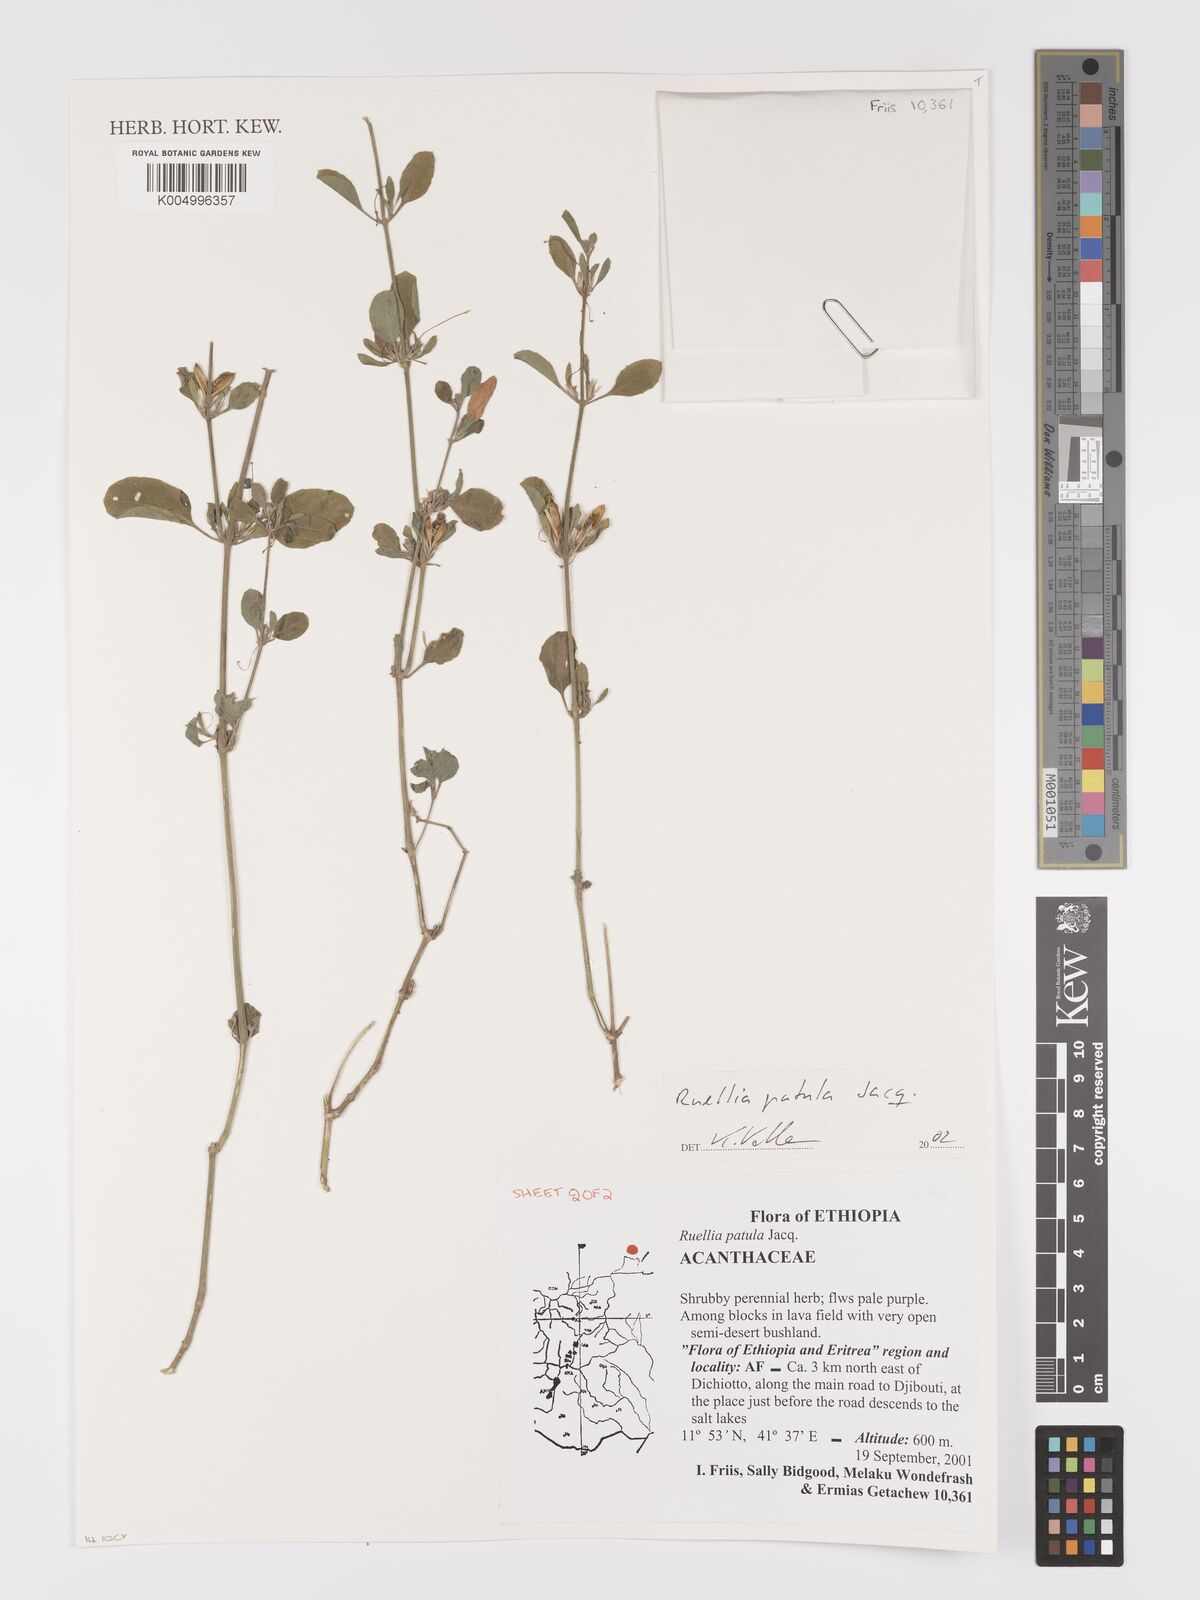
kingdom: Plantae
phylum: Tracheophyta
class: Magnoliopsida
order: Lamiales
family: Acanthaceae
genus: Ruellia
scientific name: Ruellia patula
